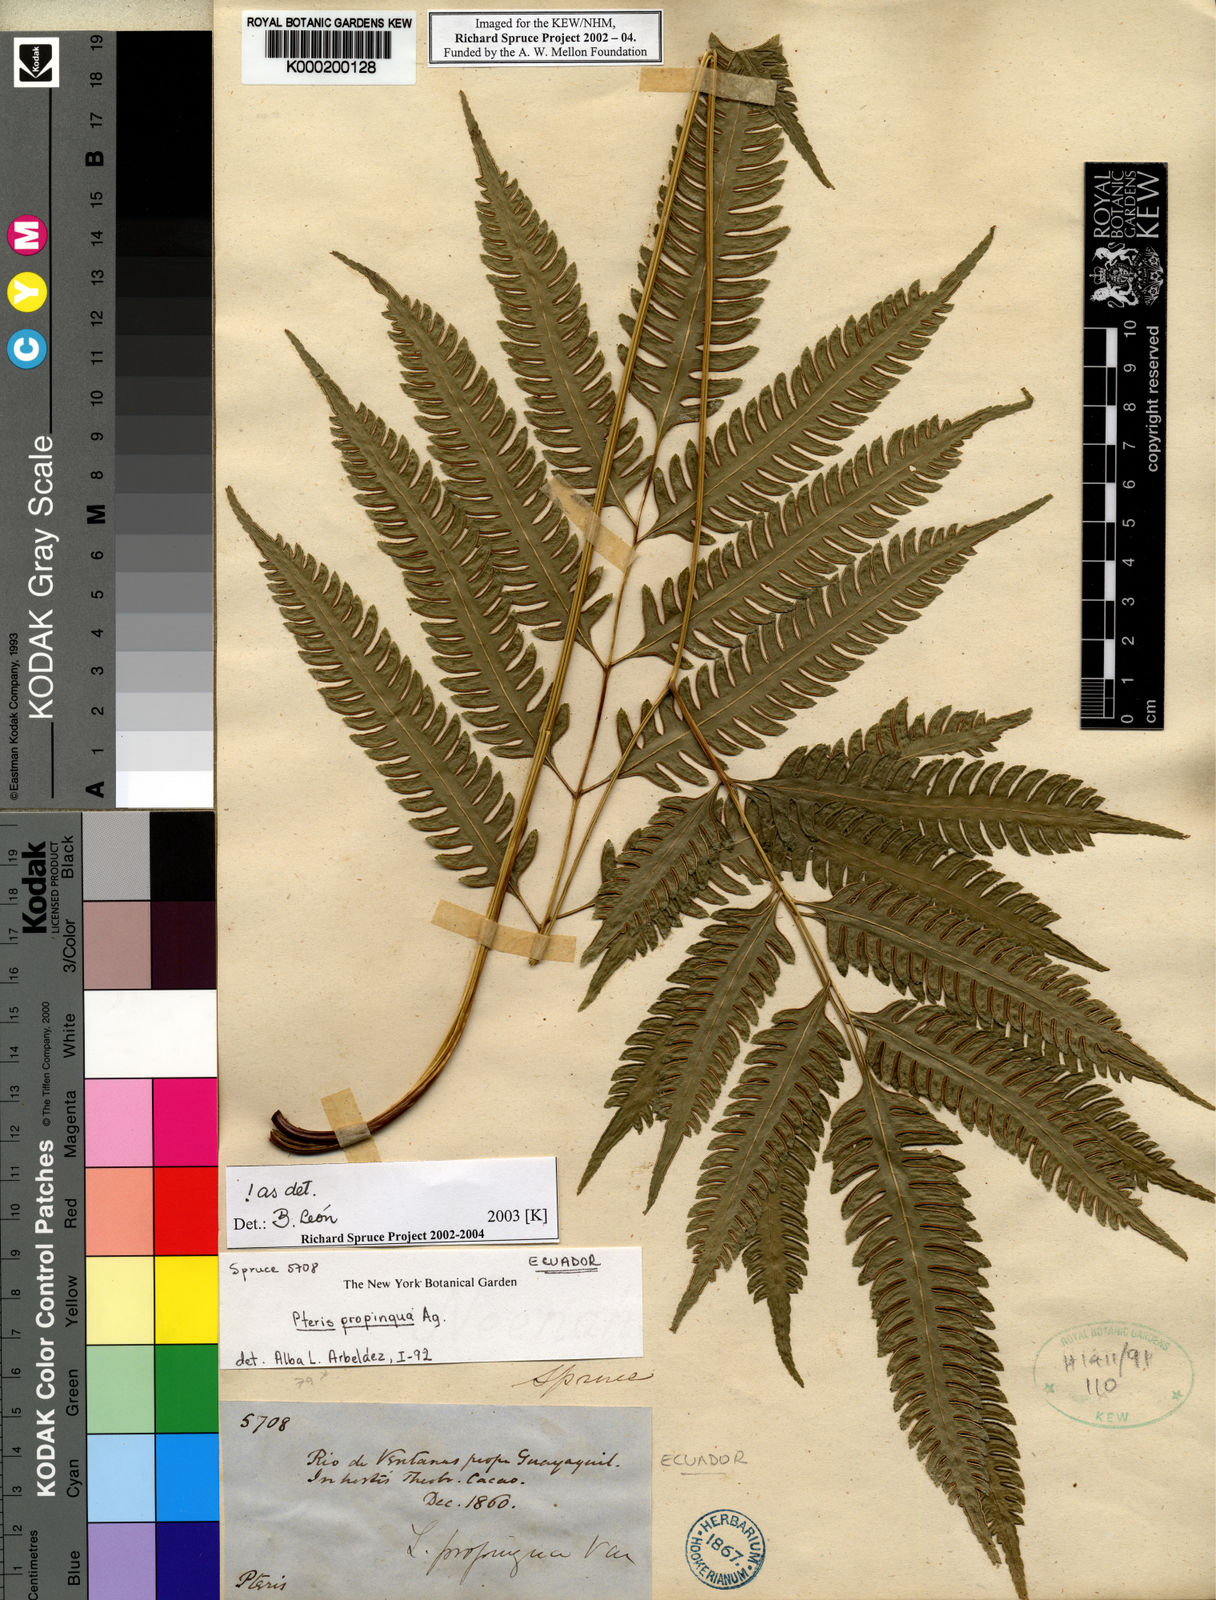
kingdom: Plantae
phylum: Tracheophyta
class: Polypodiopsida
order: Polypodiales
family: Pteridaceae
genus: Pteris
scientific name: Pteris propinqua
